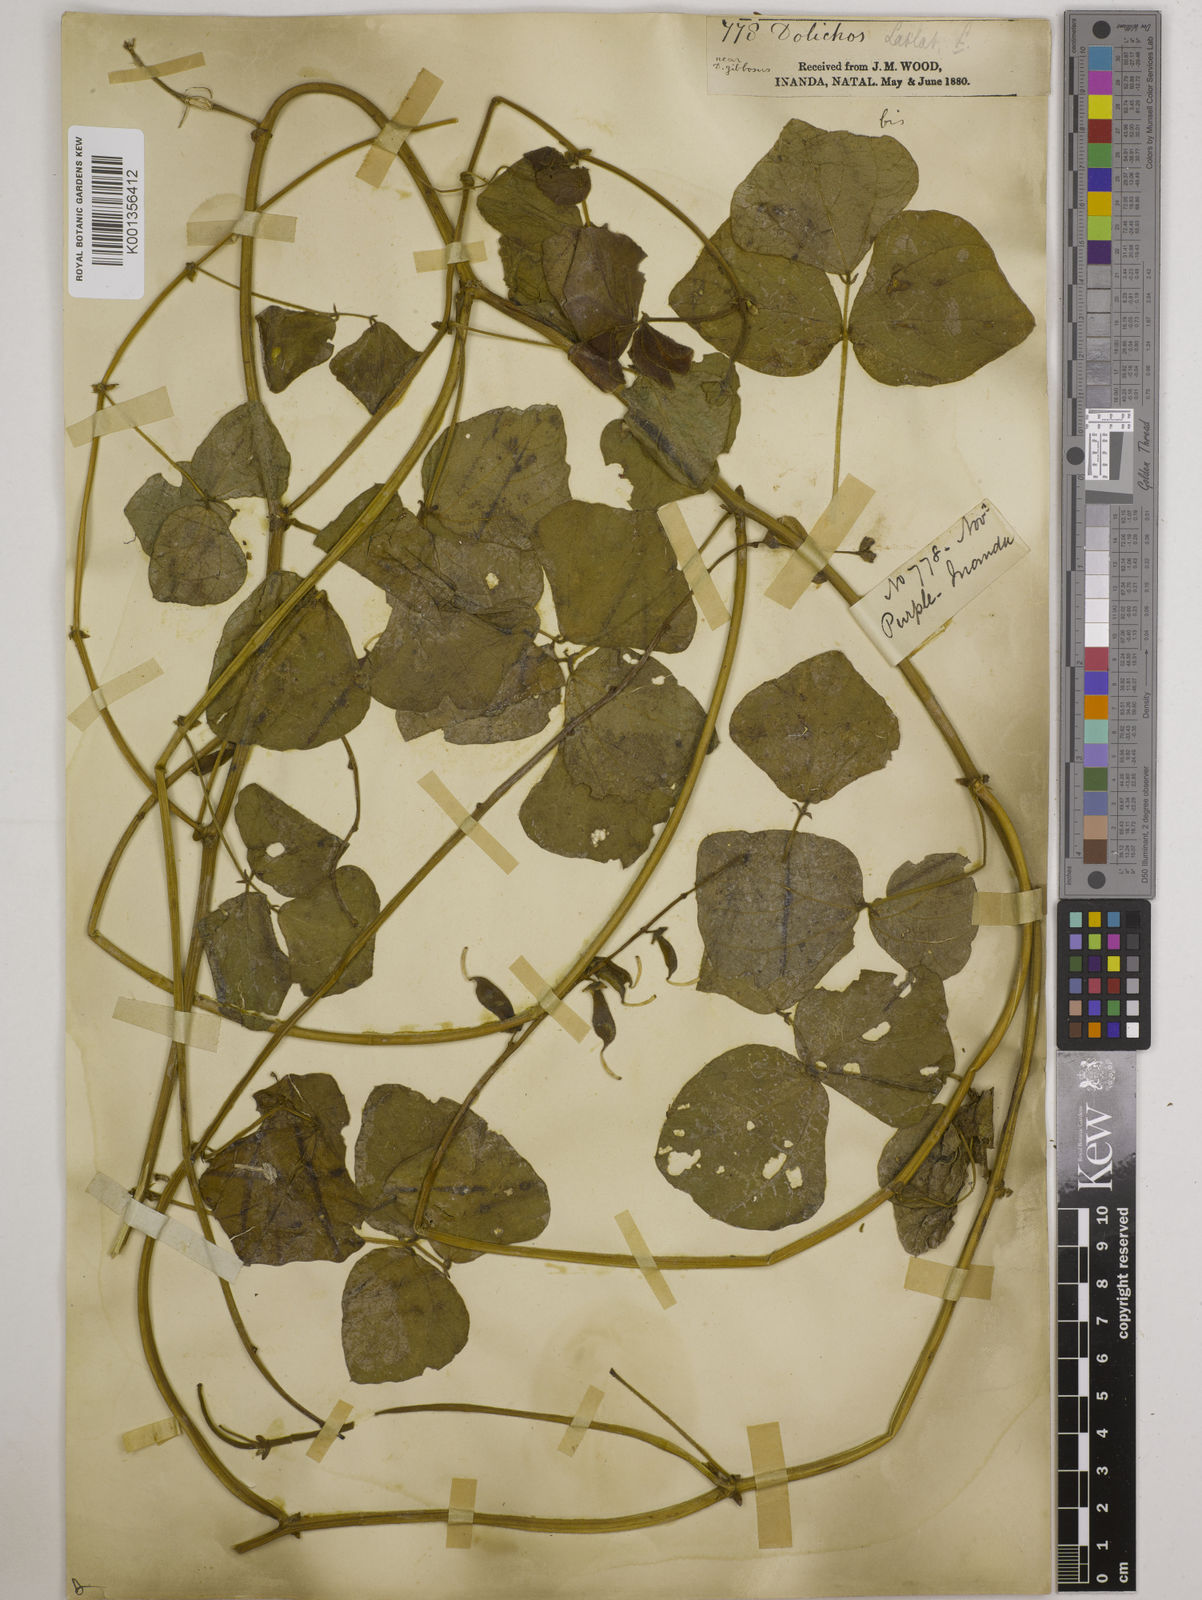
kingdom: Plantae
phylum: Tracheophyta
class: Magnoliopsida
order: Fabales
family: Fabaceae
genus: Lablab
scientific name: Lablab purpureus
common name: Lablab-bean
